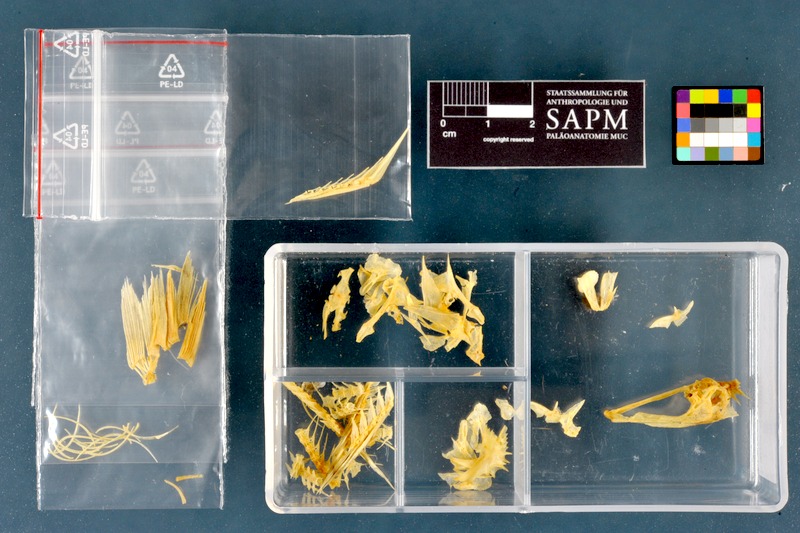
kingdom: Animalia
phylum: Chordata
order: Perciformes
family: Percidae
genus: Gymnocephalus
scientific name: Gymnocephalus schraetser
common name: Schraetzer
